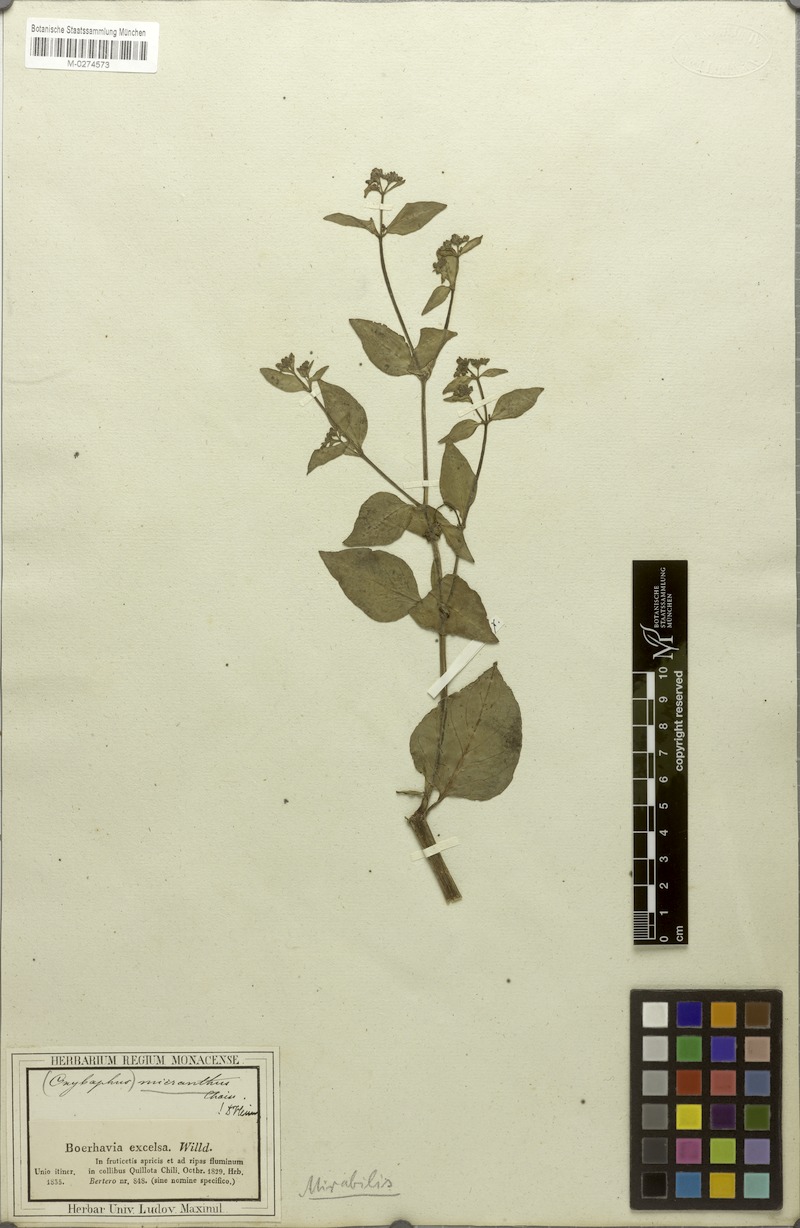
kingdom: Plantae
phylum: Tracheophyta
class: Magnoliopsida
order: Caryophyllales
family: Nyctaginaceae
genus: Mirabilis
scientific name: Mirabilis prostrata
